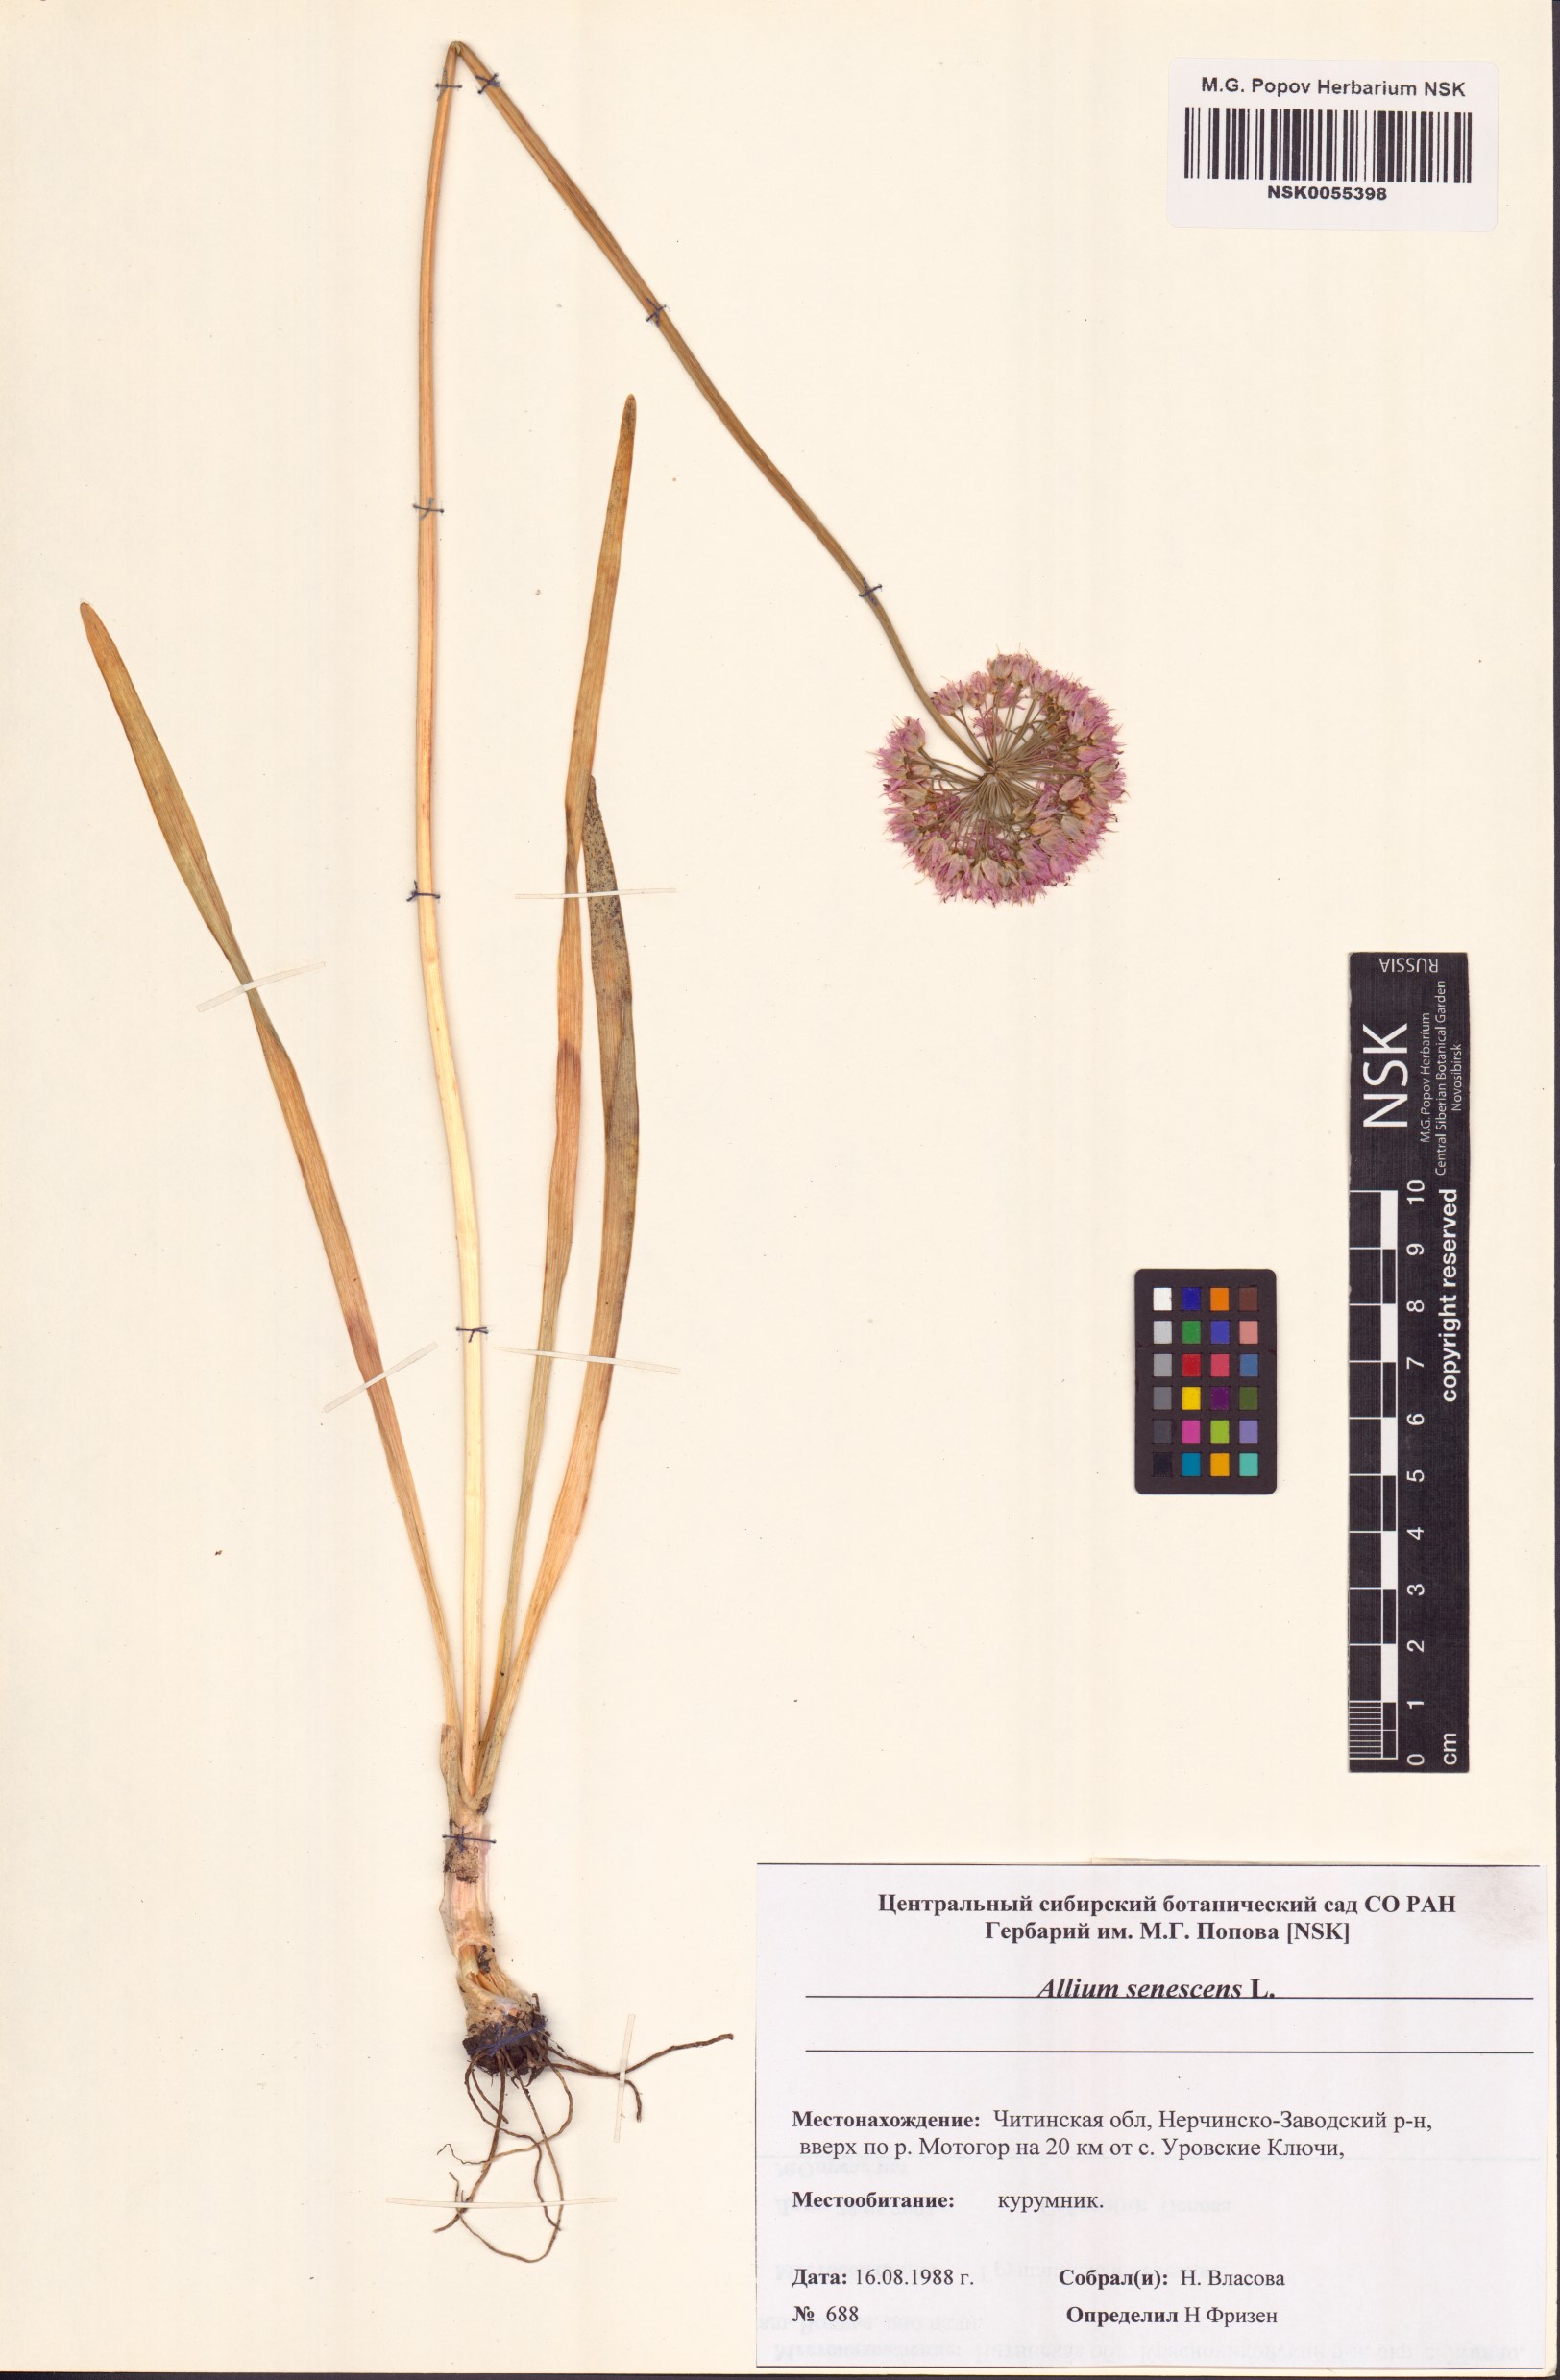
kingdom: Plantae
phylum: Tracheophyta
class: Liliopsida
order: Asparagales
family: Amaryllidaceae
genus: Allium
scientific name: Allium senescens
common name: German garlic
